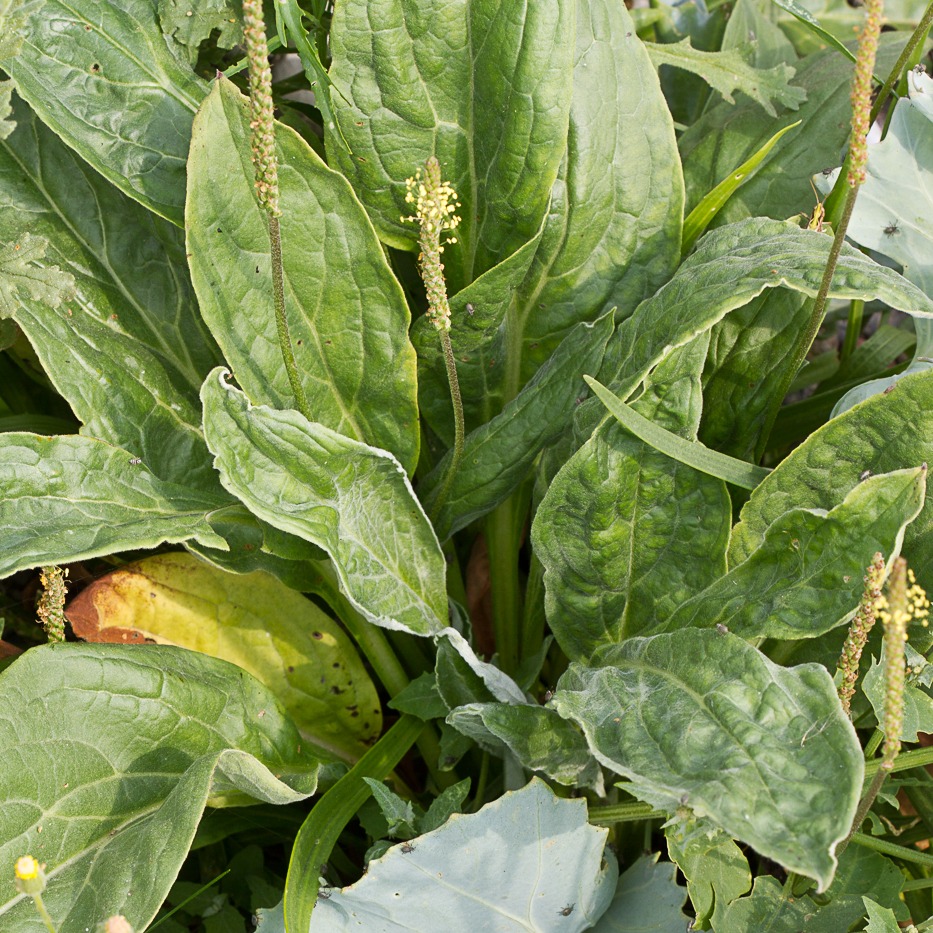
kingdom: Plantae
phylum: Tracheophyta
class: Magnoliopsida
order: Lamiales
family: Plantaginaceae
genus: Plantago
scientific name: Plantago major
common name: Glat vejbred
